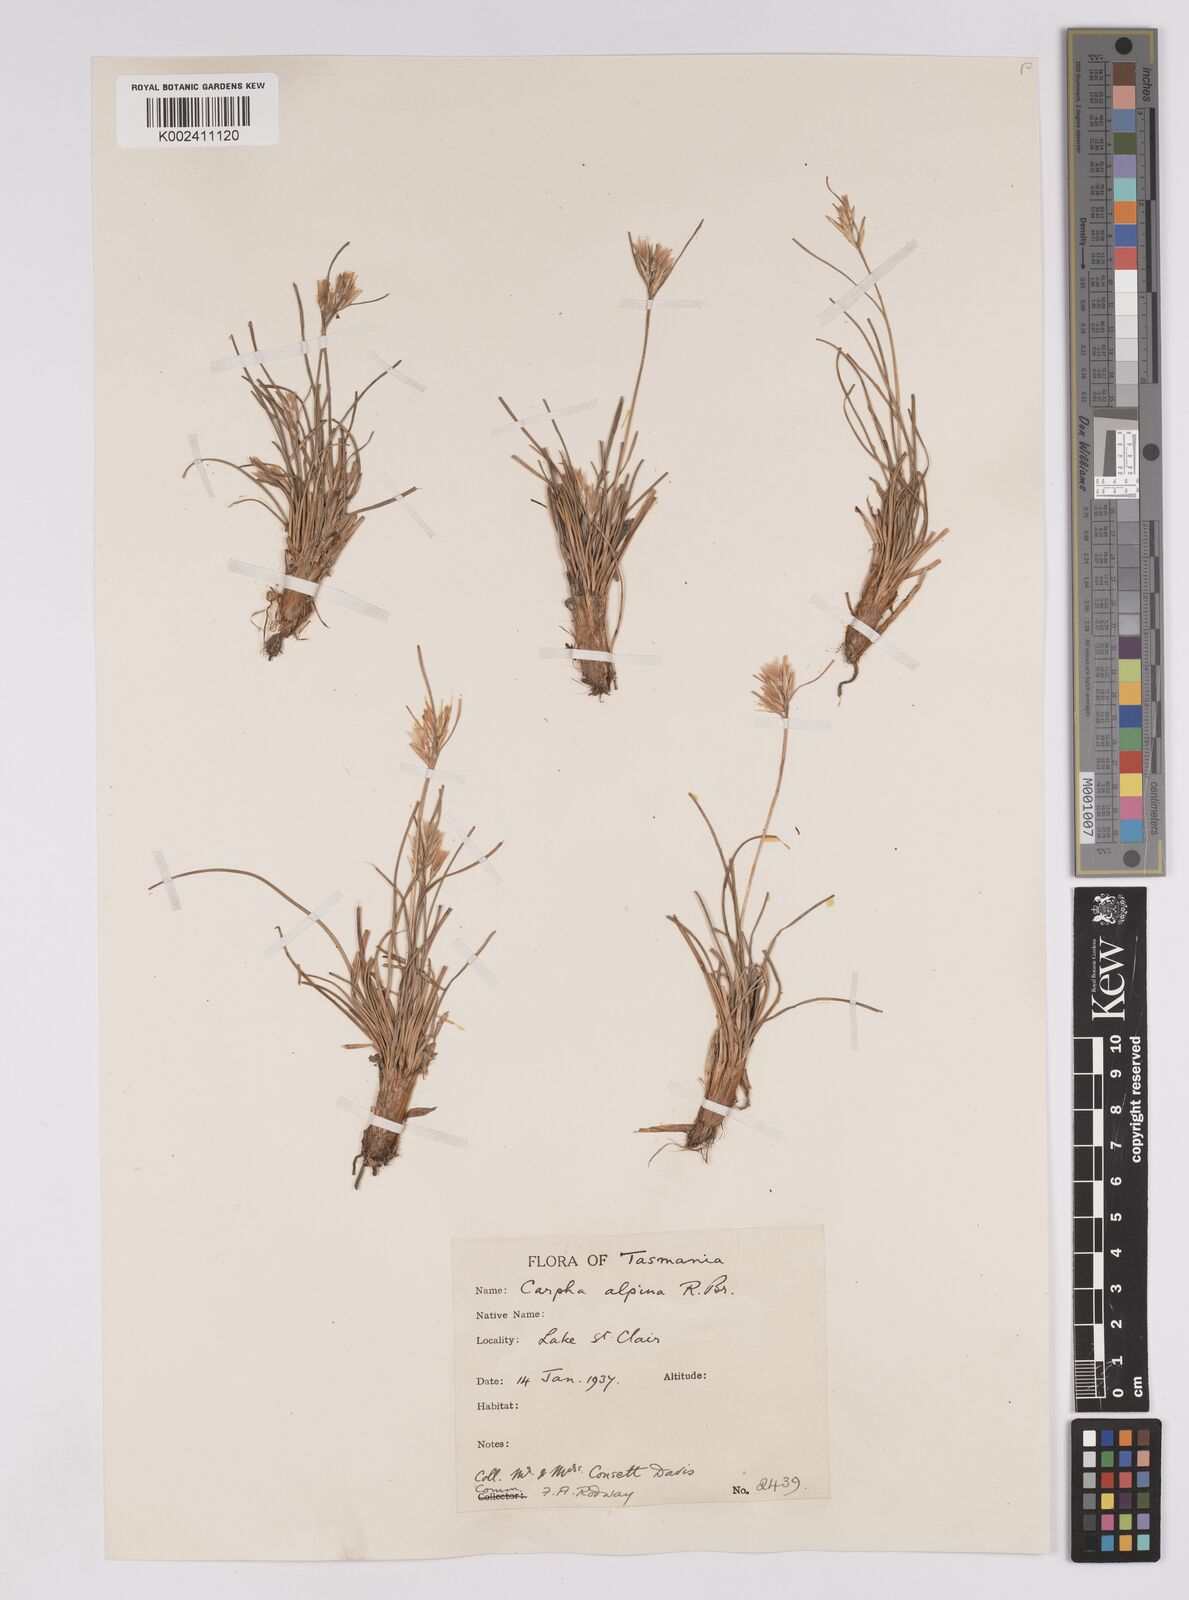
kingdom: Plantae
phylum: Tracheophyta
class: Liliopsida
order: Poales
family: Cyperaceae
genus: Carpha
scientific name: Carpha alpina
